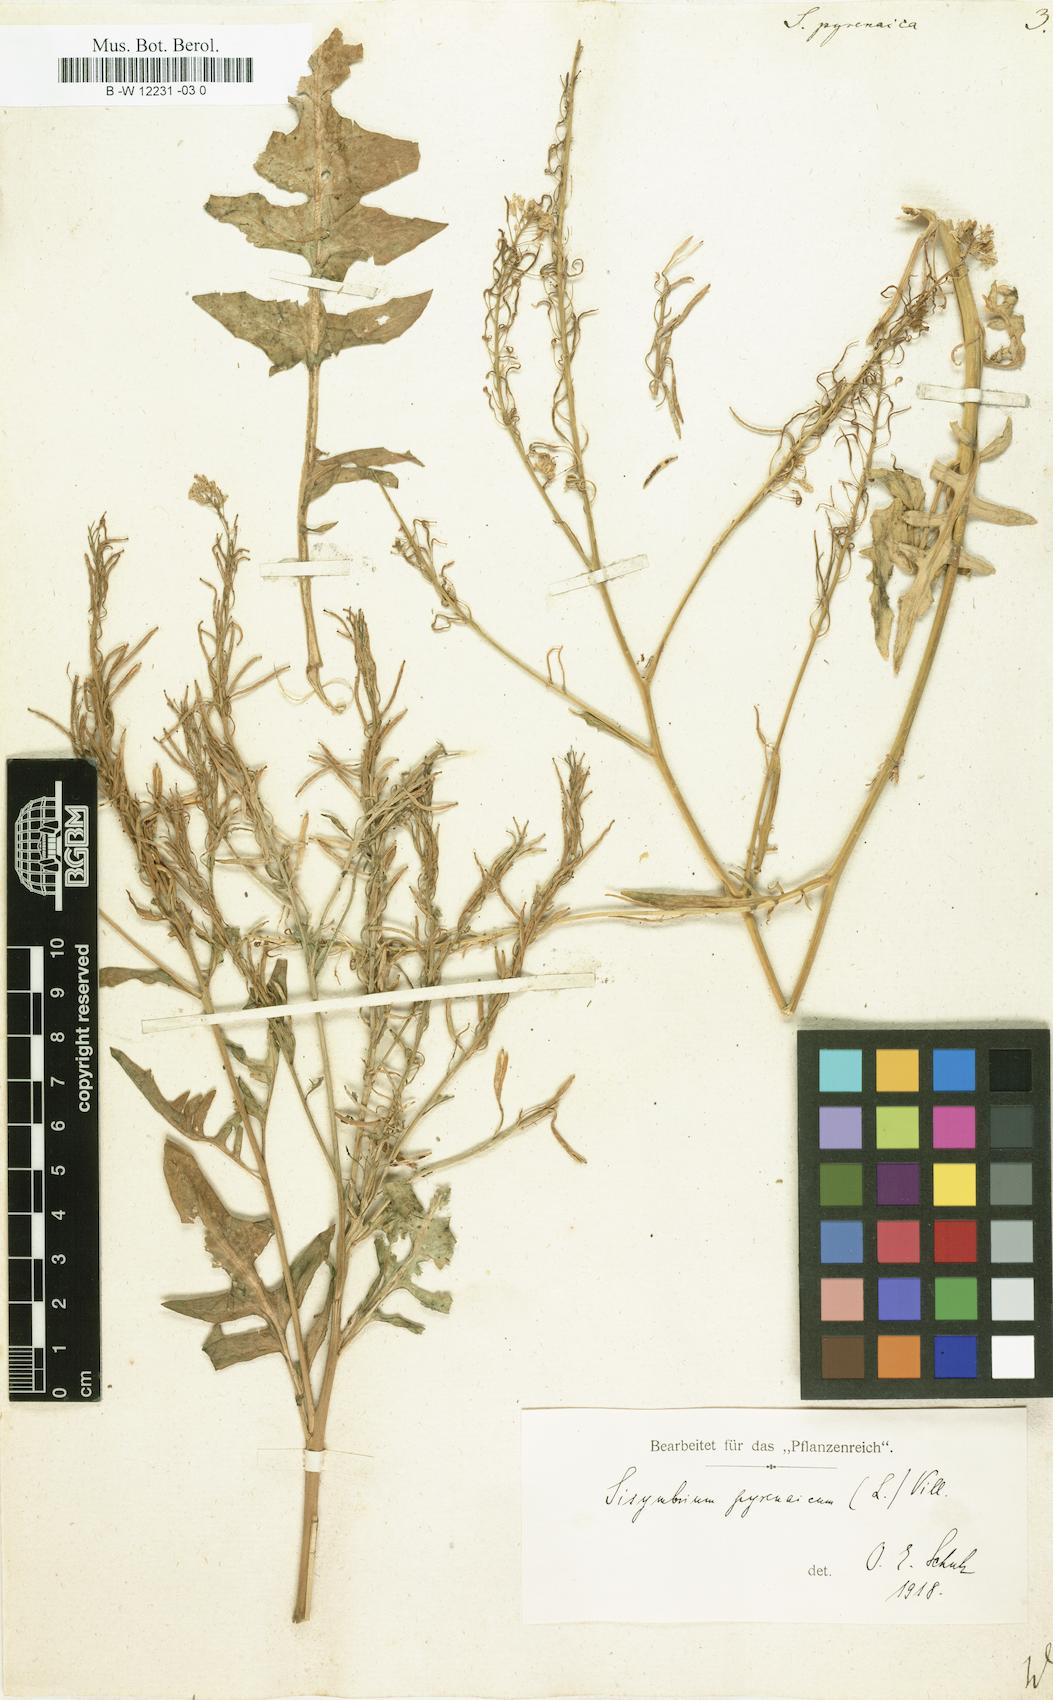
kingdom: Plantae
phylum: Tracheophyta
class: Magnoliopsida
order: Brassicales
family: Brassicaceae
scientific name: Brassicaceae
